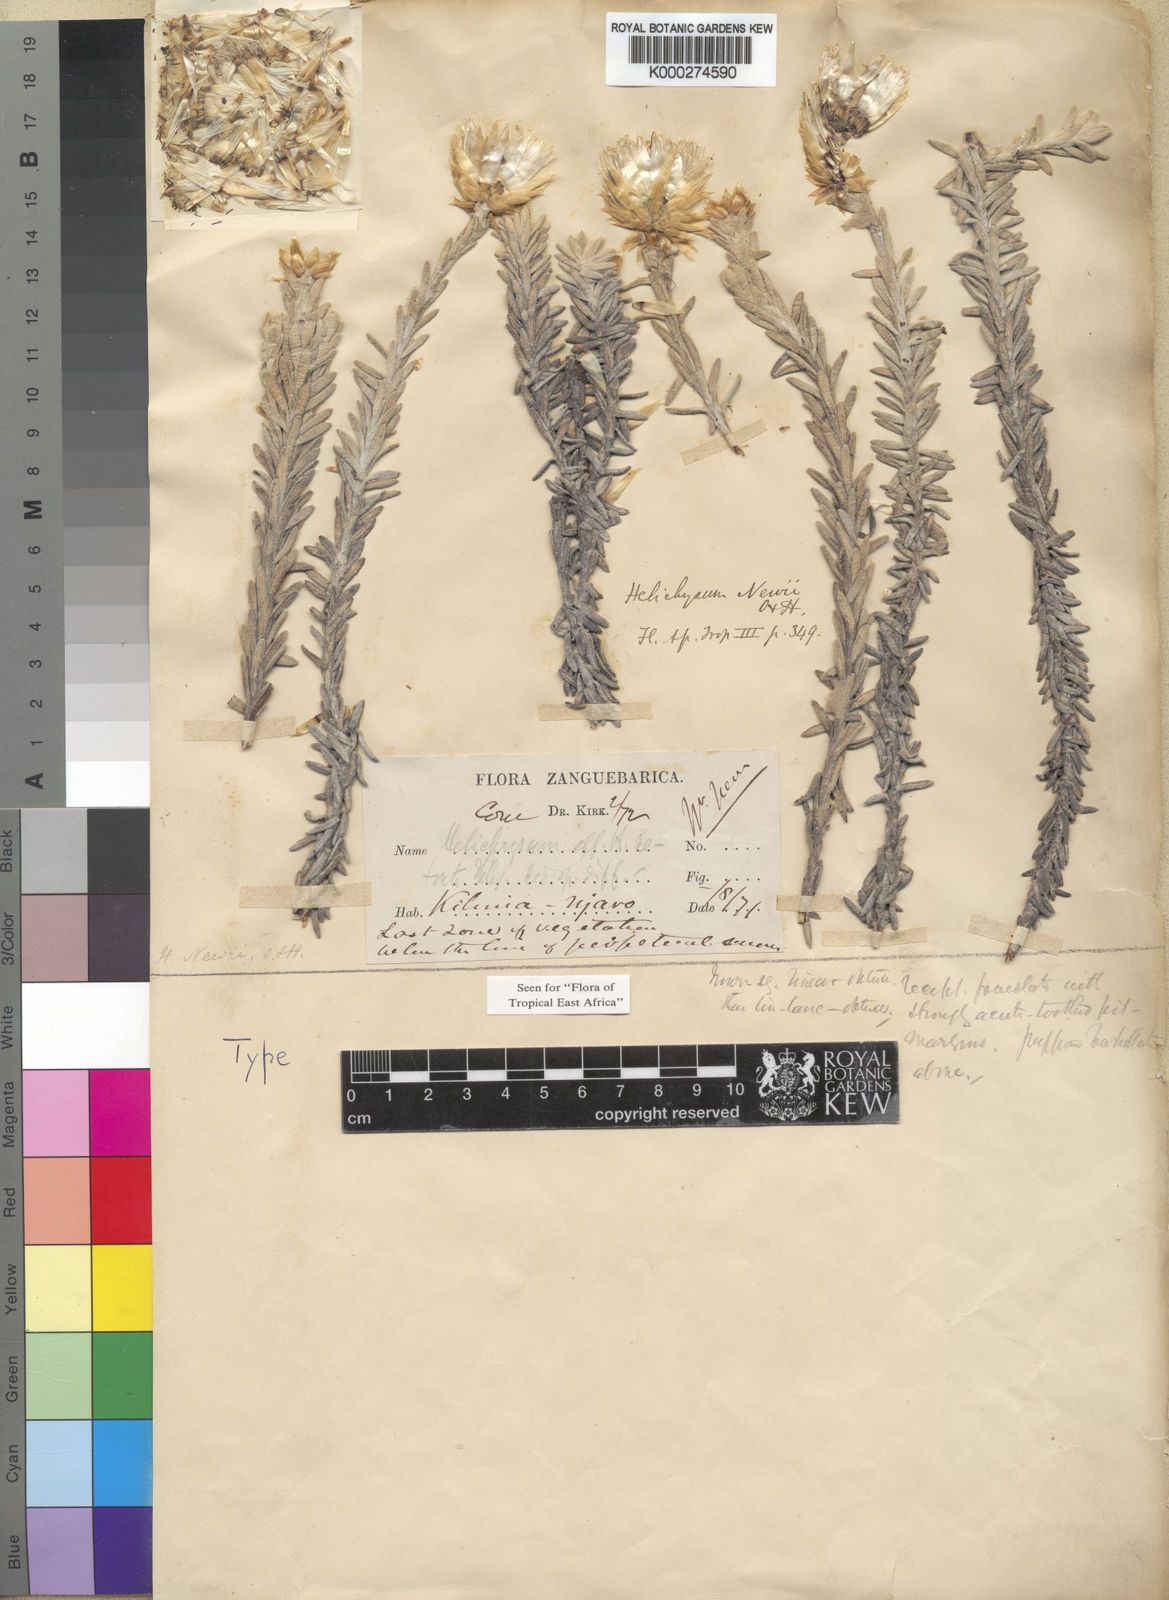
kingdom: Plantae
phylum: Tracheophyta
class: Magnoliopsida
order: Asterales
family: Asteraceae
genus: Helichrysum
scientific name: Helichrysum newii
